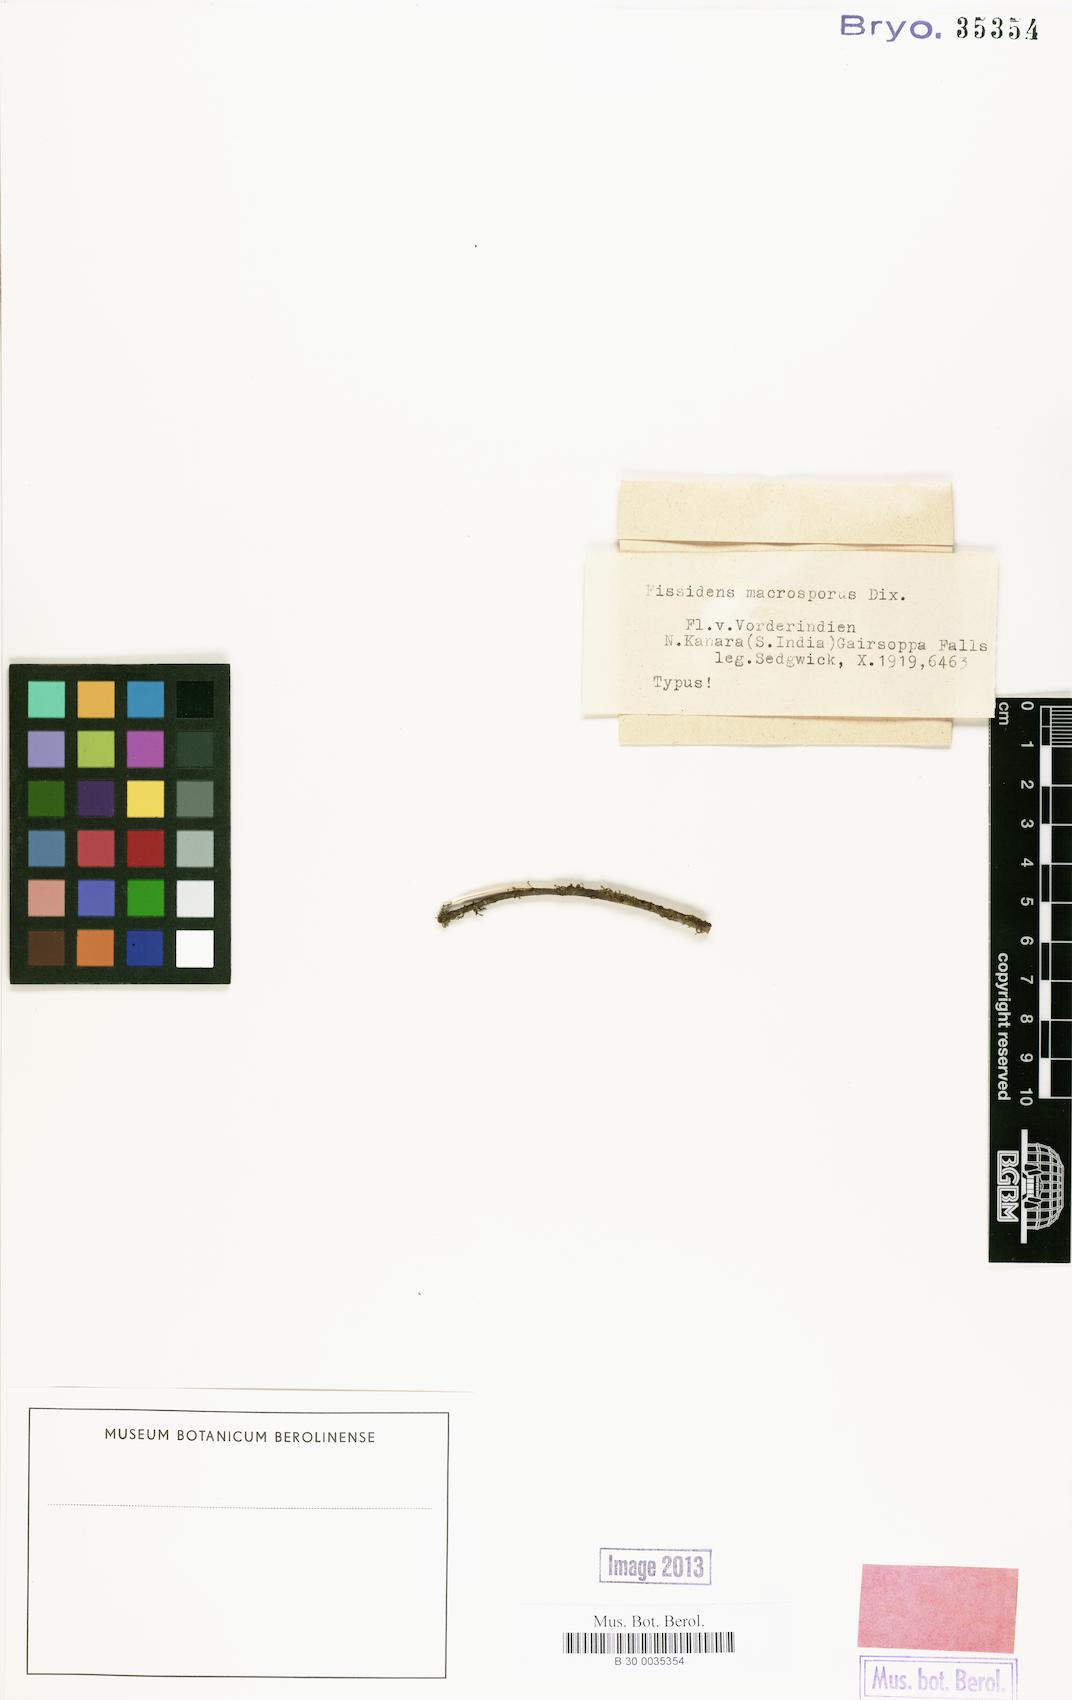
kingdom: Plantae
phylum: Bryophyta
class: Bryopsida
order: Dicranales
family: Fissidentaceae
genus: Fissidens
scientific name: Fissidens macrosporus
